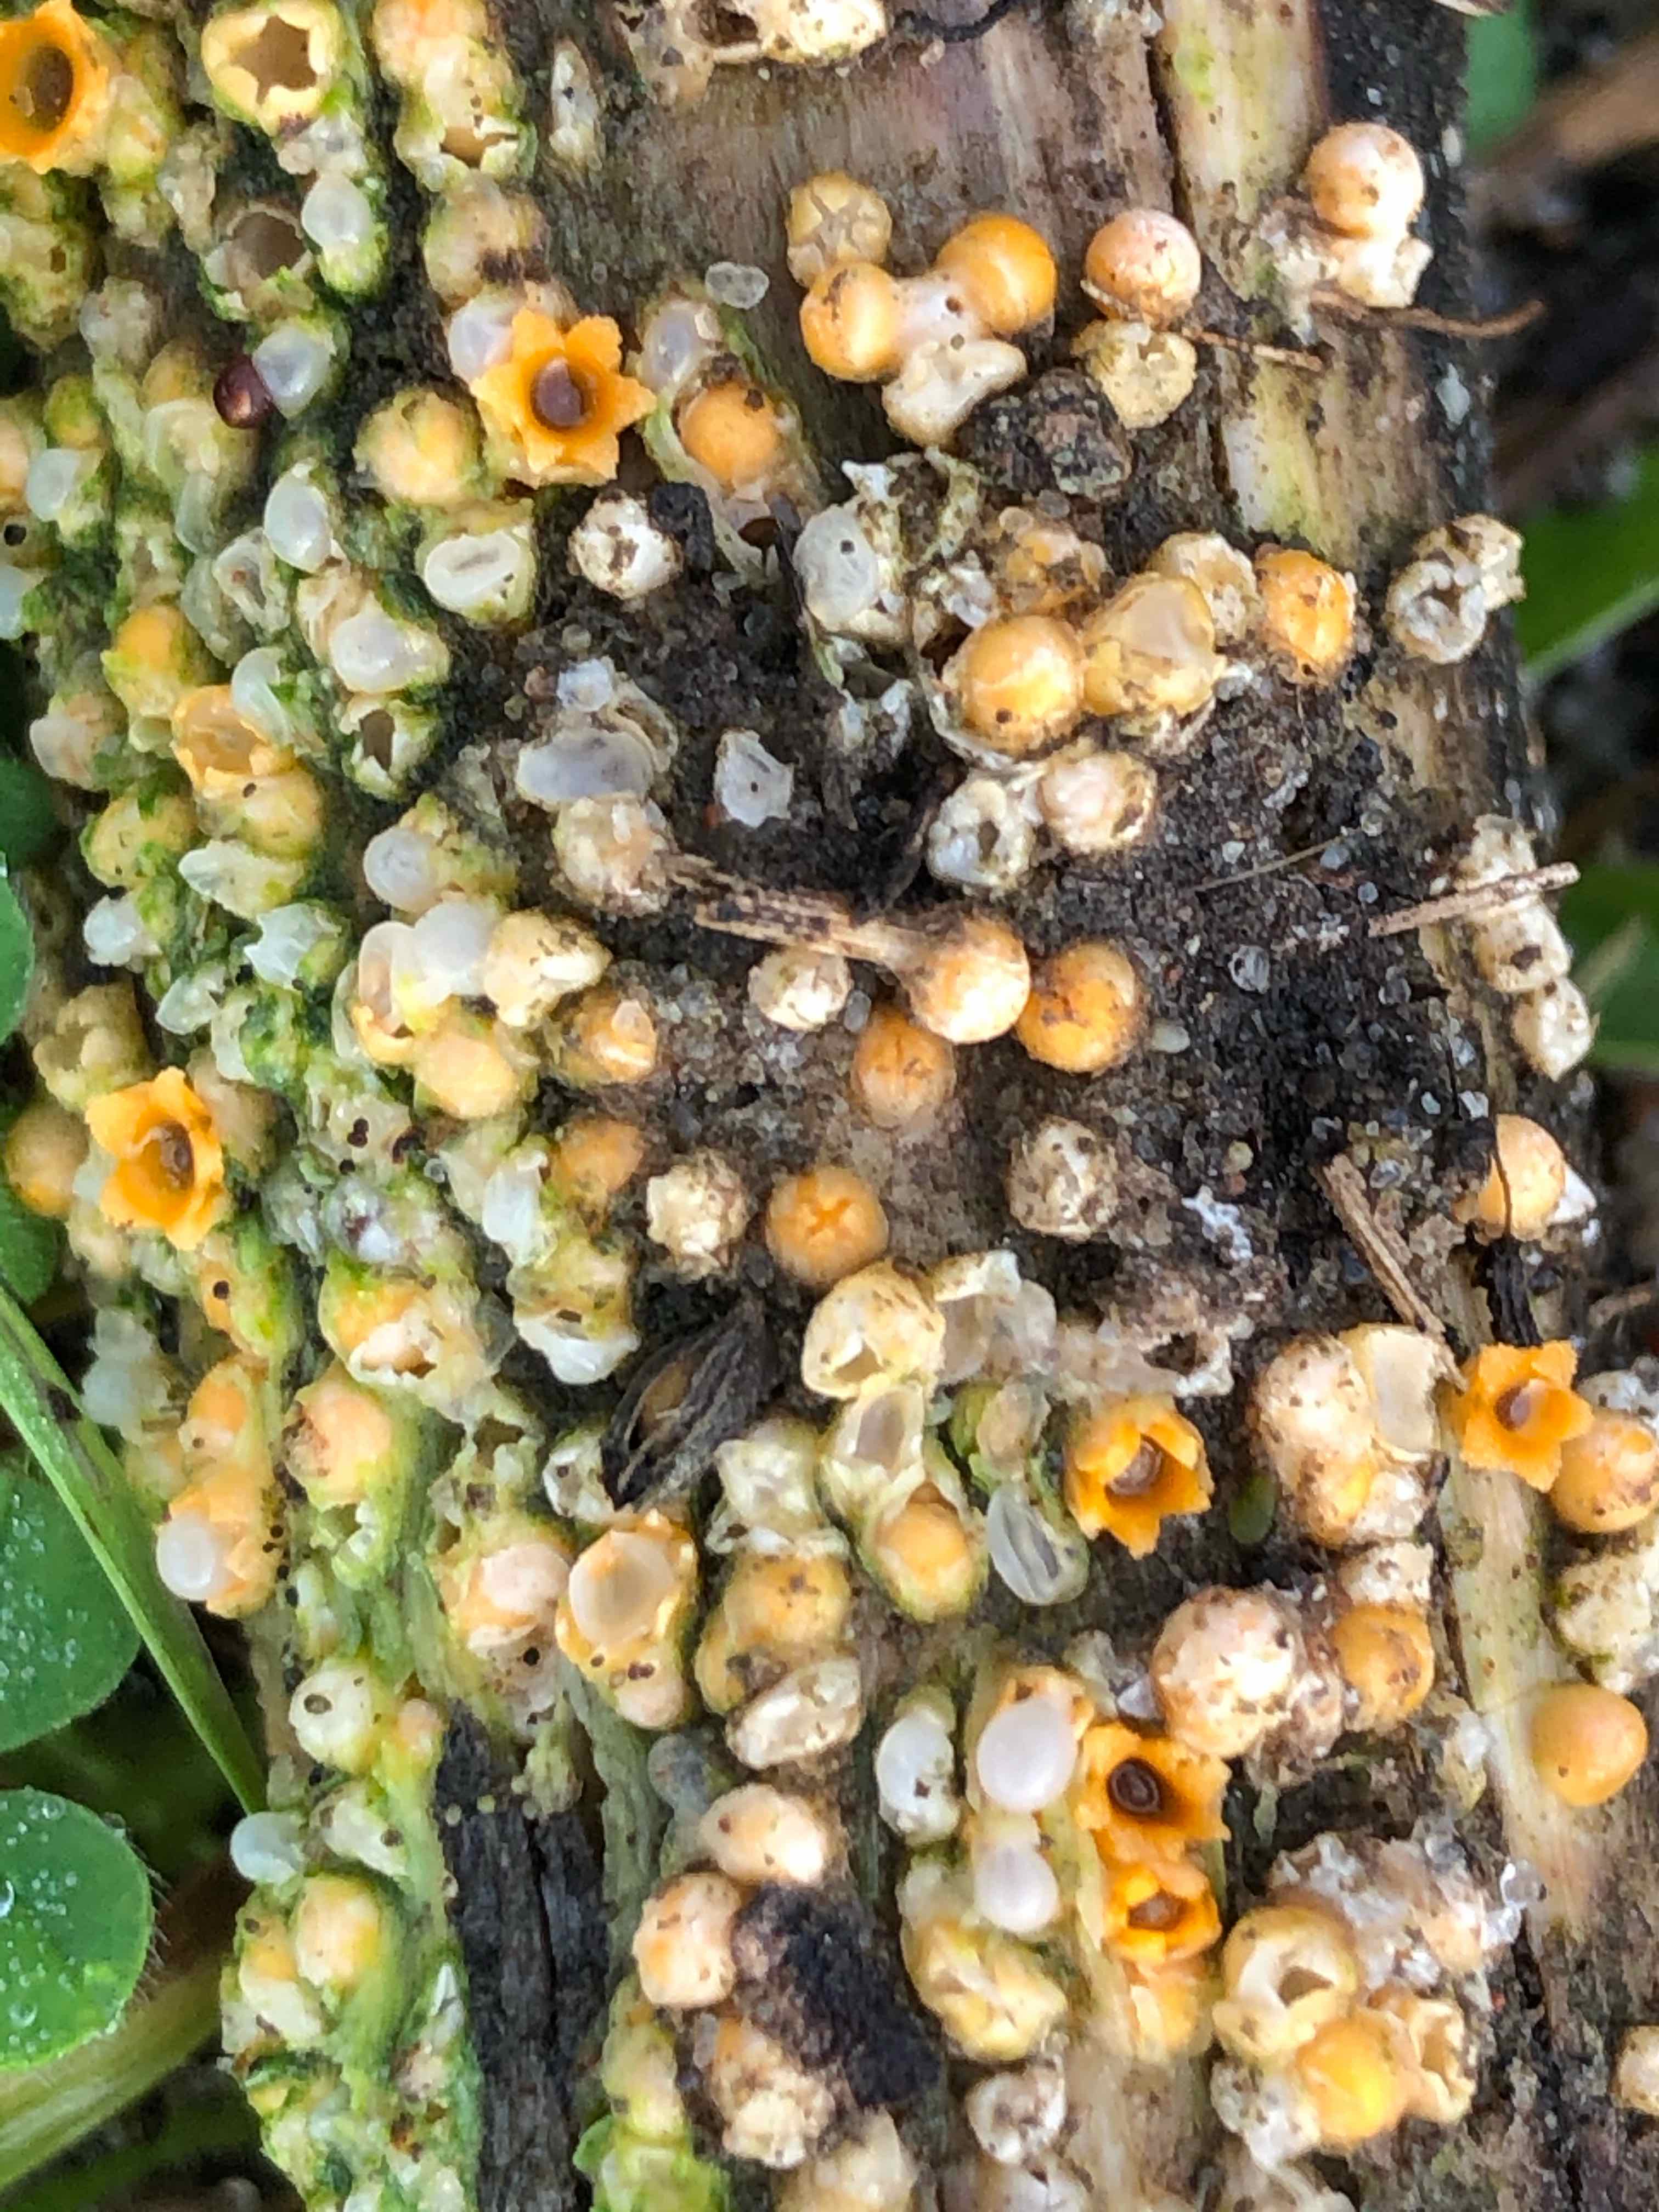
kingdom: Fungi
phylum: Basidiomycota
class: Agaricomycetes
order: Geastrales
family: Geastraceae
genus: Sphaerobolus
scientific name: Sphaerobolus stellatus
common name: bombekaster
